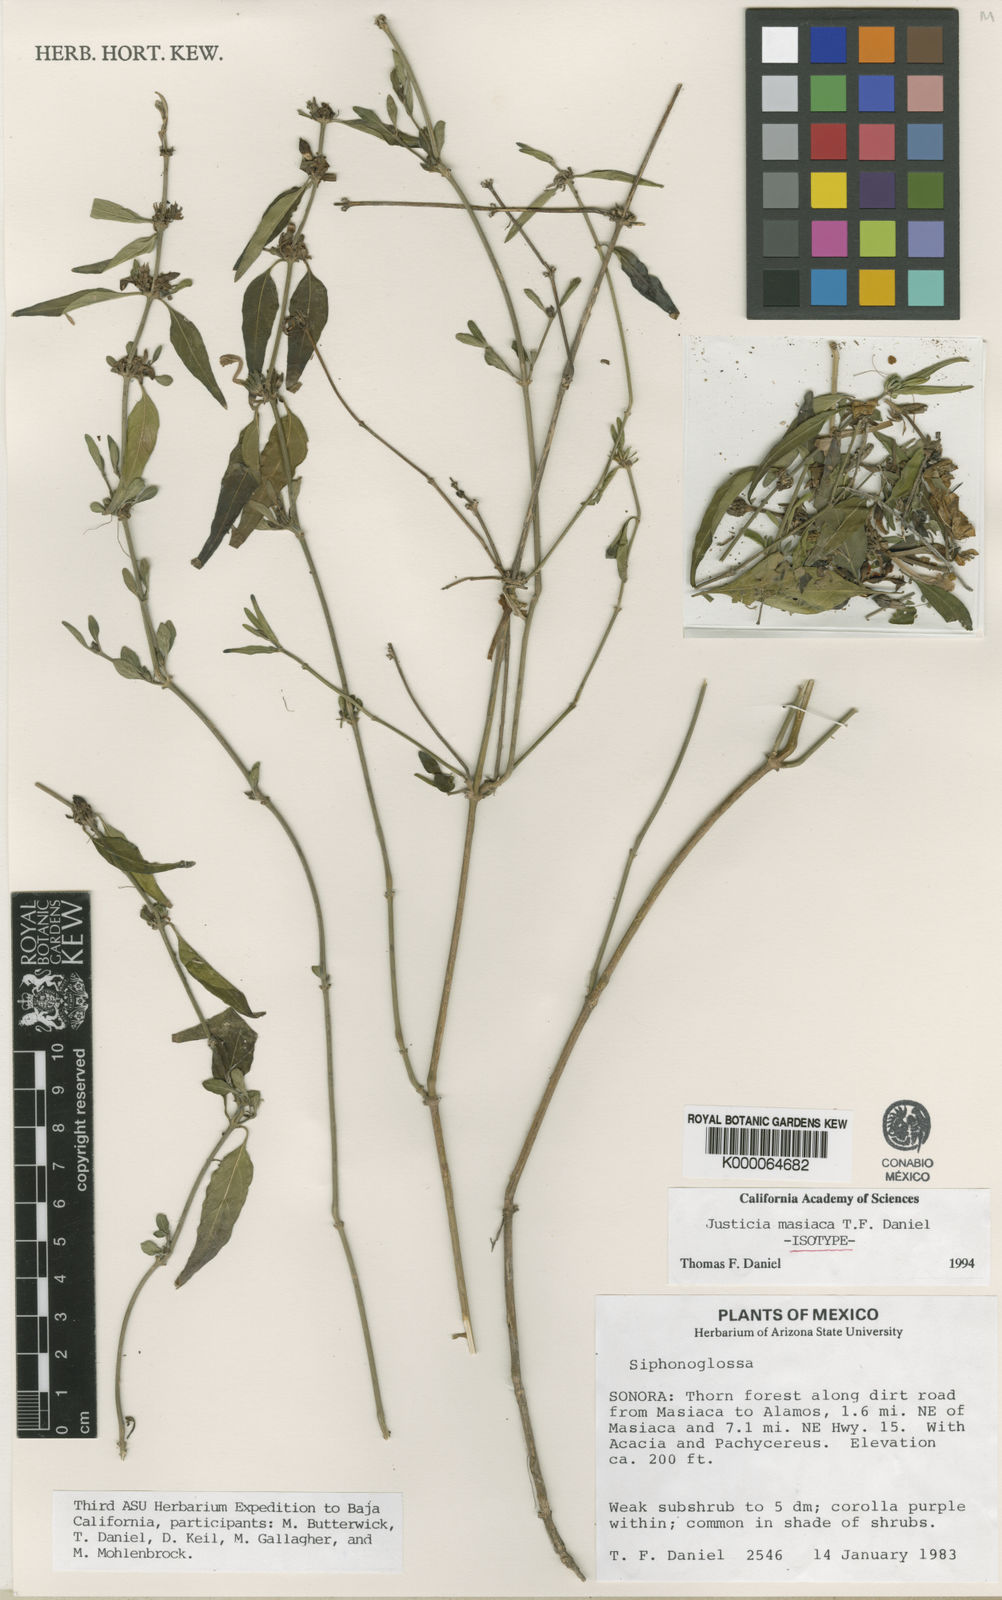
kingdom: Plantae
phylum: Tracheophyta
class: Magnoliopsida
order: Lamiales
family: Acanthaceae
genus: Justicia
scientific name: Justicia masiaca
